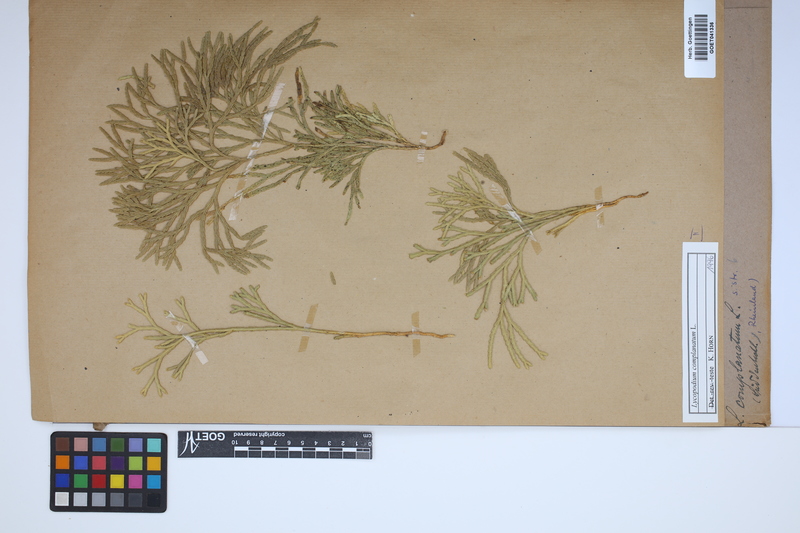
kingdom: Plantae
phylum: Tracheophyta
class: Lycopodiopsida
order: Lycopodiales
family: Lycopodiaceae
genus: Diphasiastrum
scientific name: Diphasiastrum complanatum
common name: Northern running-pine
